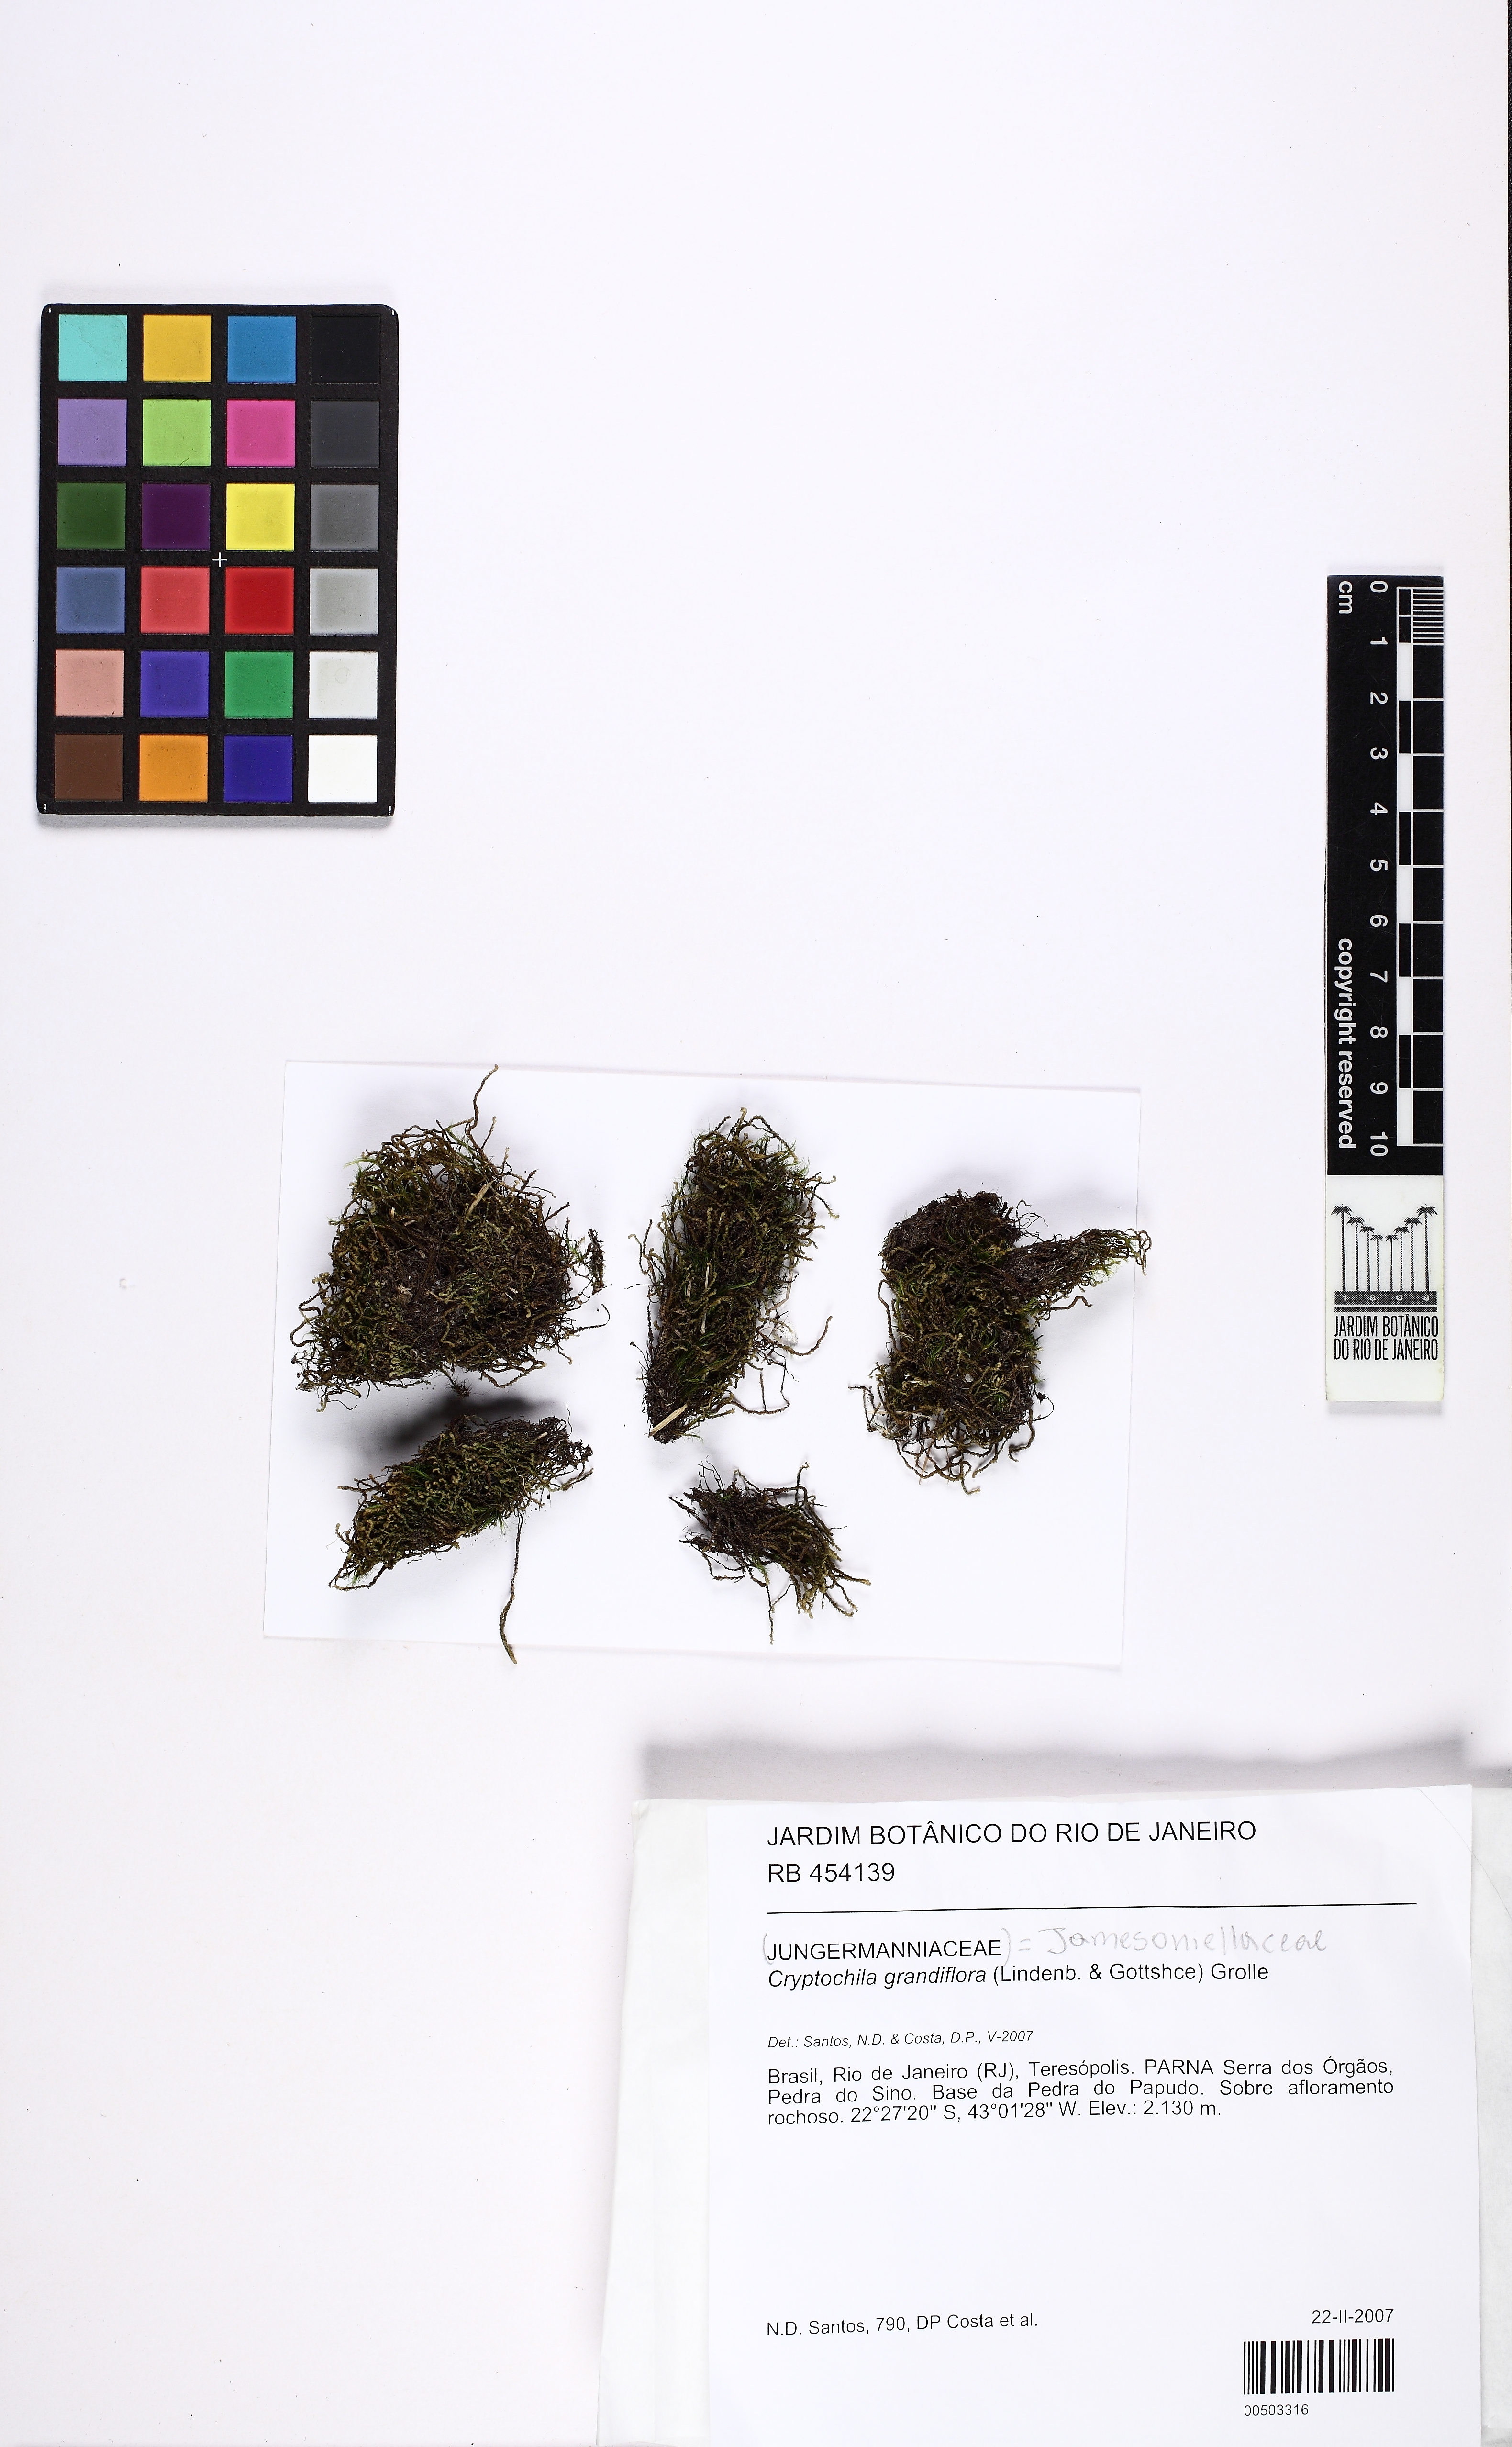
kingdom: Plantae
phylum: Marchantiophyta
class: Jungermanniopsida
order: Jungermanniales
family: Adelanthaceae
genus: Syzygiella
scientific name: Syzygiella sonderi
